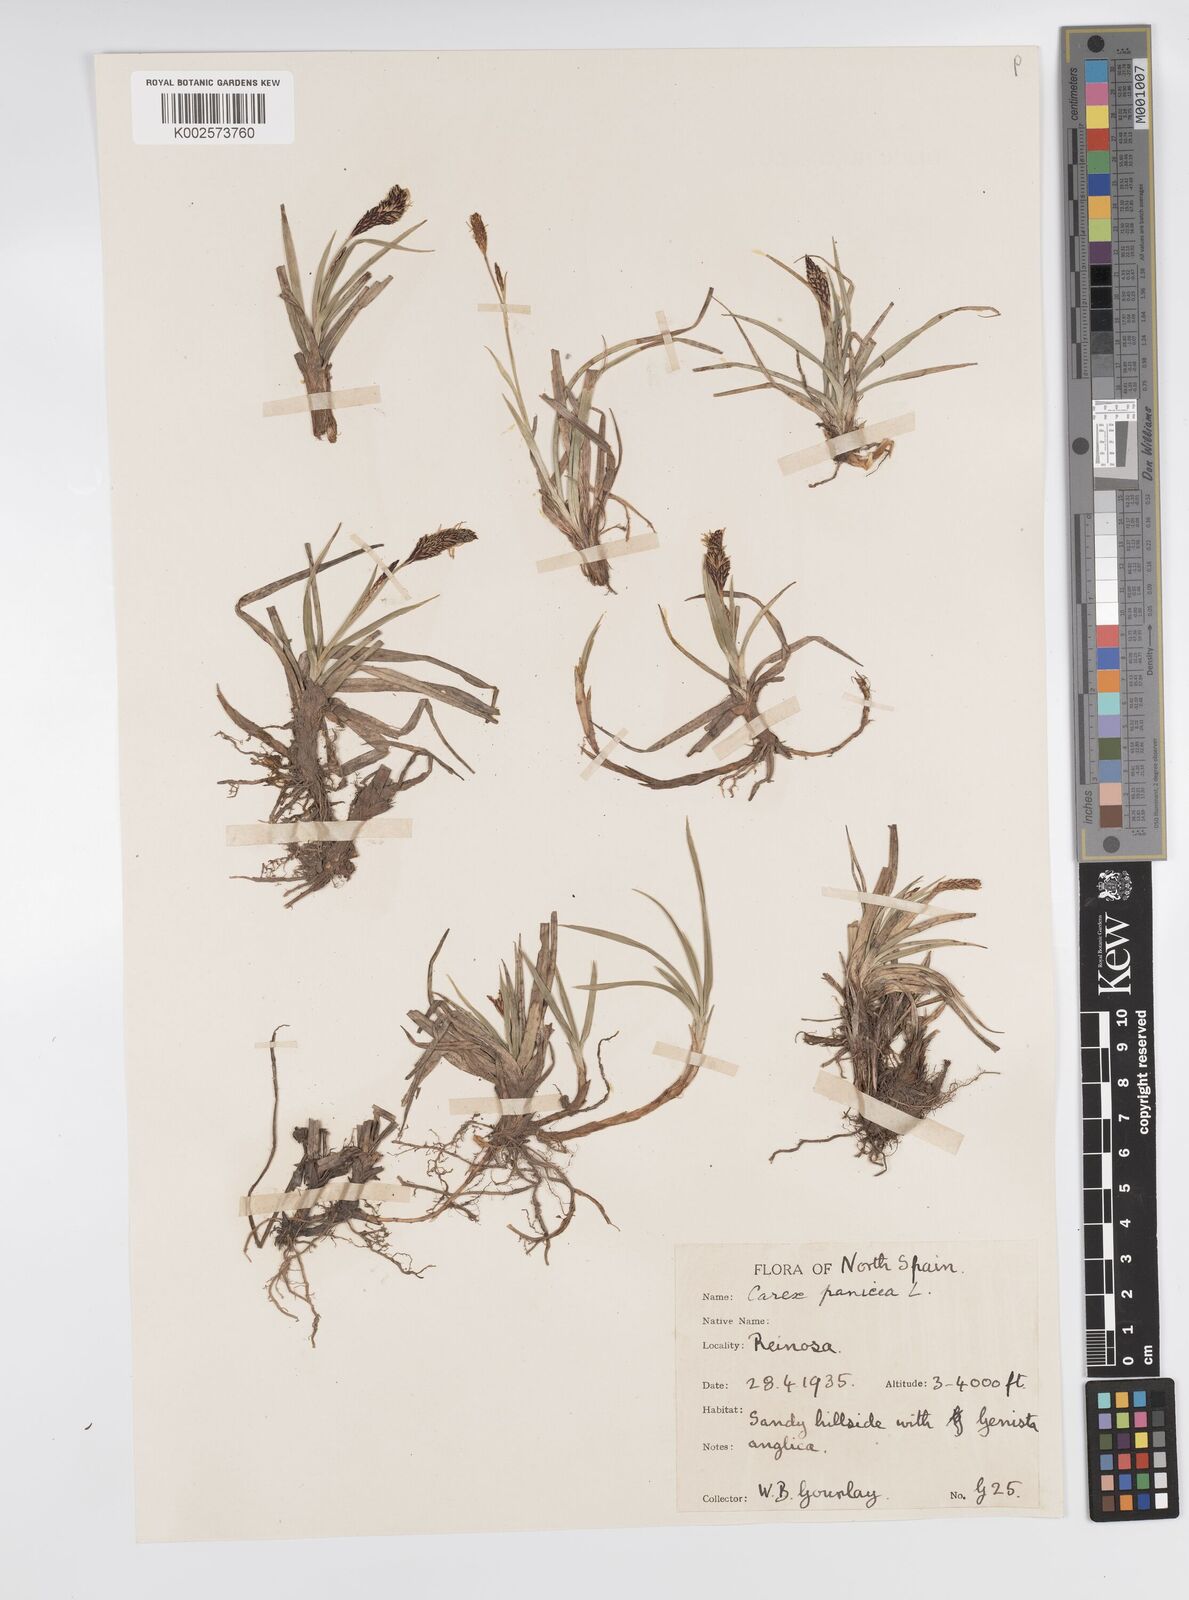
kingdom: Plantae
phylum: Tracheophyta
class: Liliopsida
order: Poales
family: Cyperaceae
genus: Carex
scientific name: Carex panicea
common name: Carnation sedge
